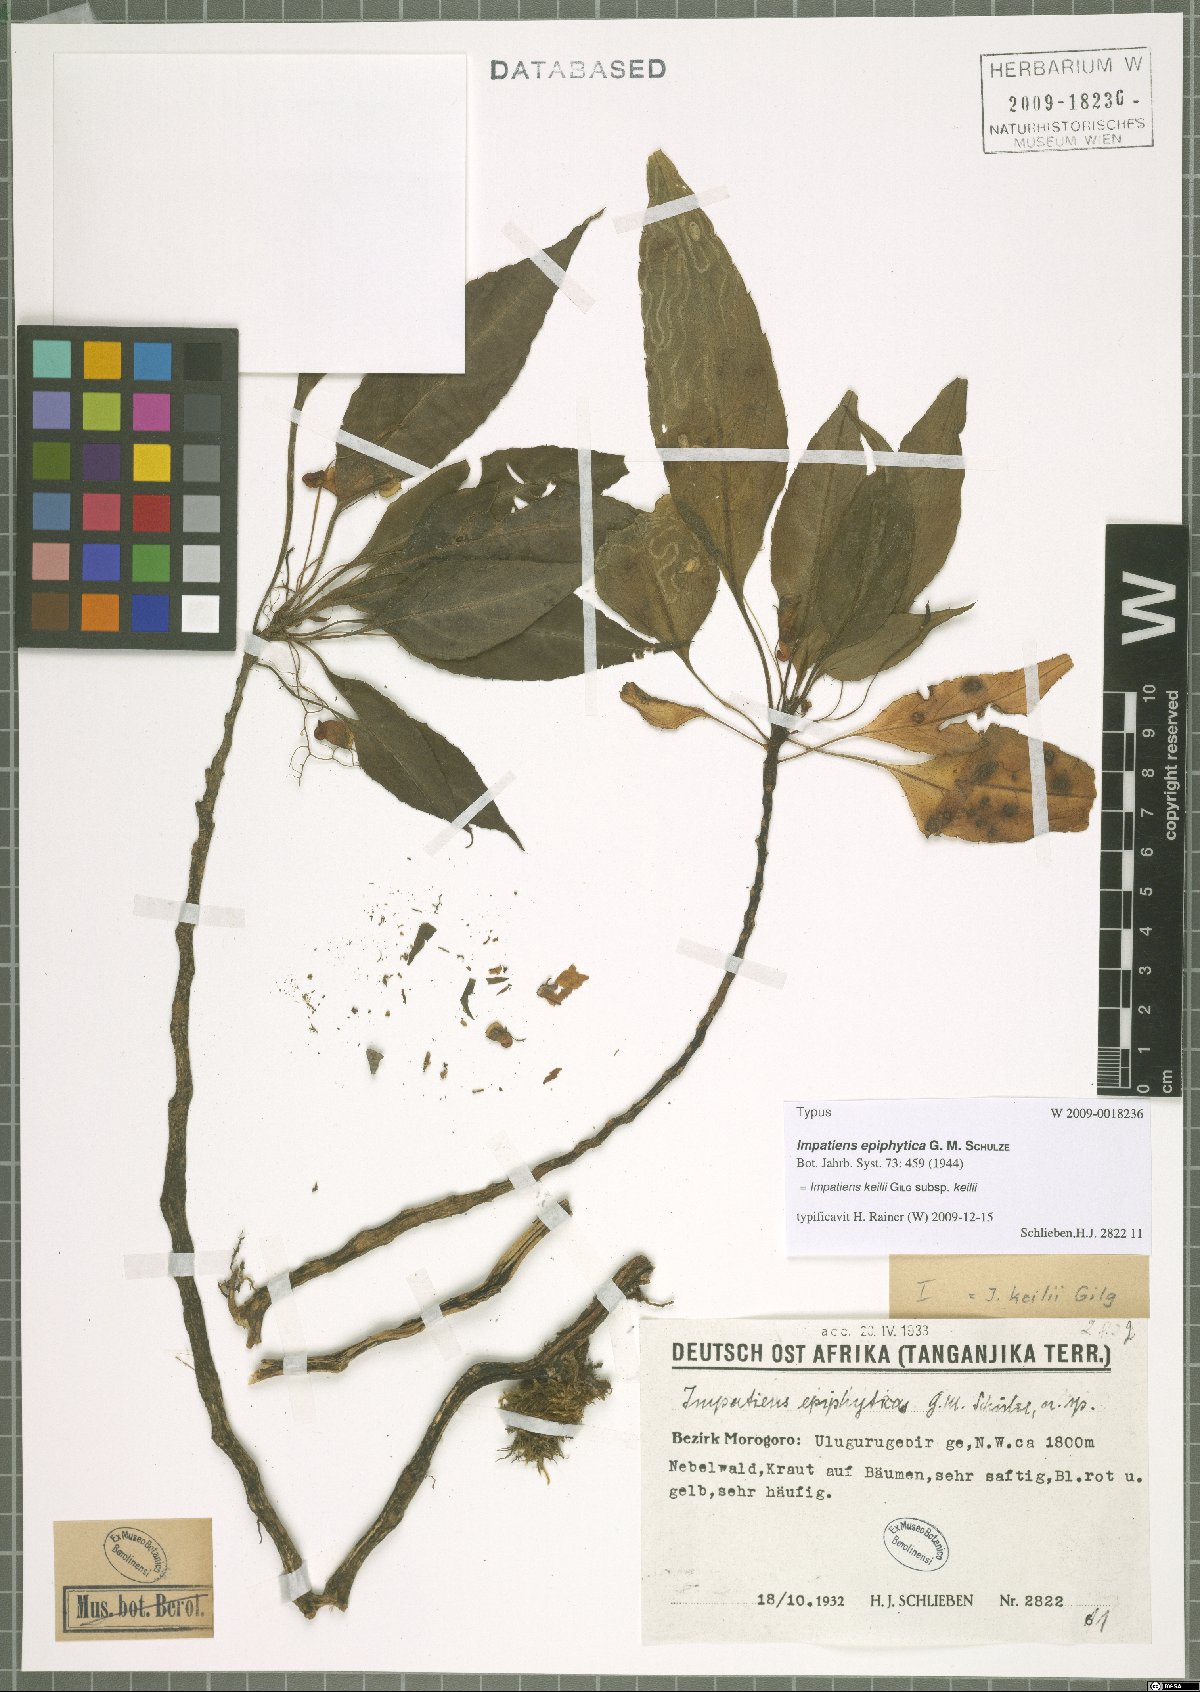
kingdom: Plantae
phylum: Tracheophyta
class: Magnoliopsida
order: Ericales
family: Balsaminaceae
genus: Impatiens
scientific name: Impatiens keilii
